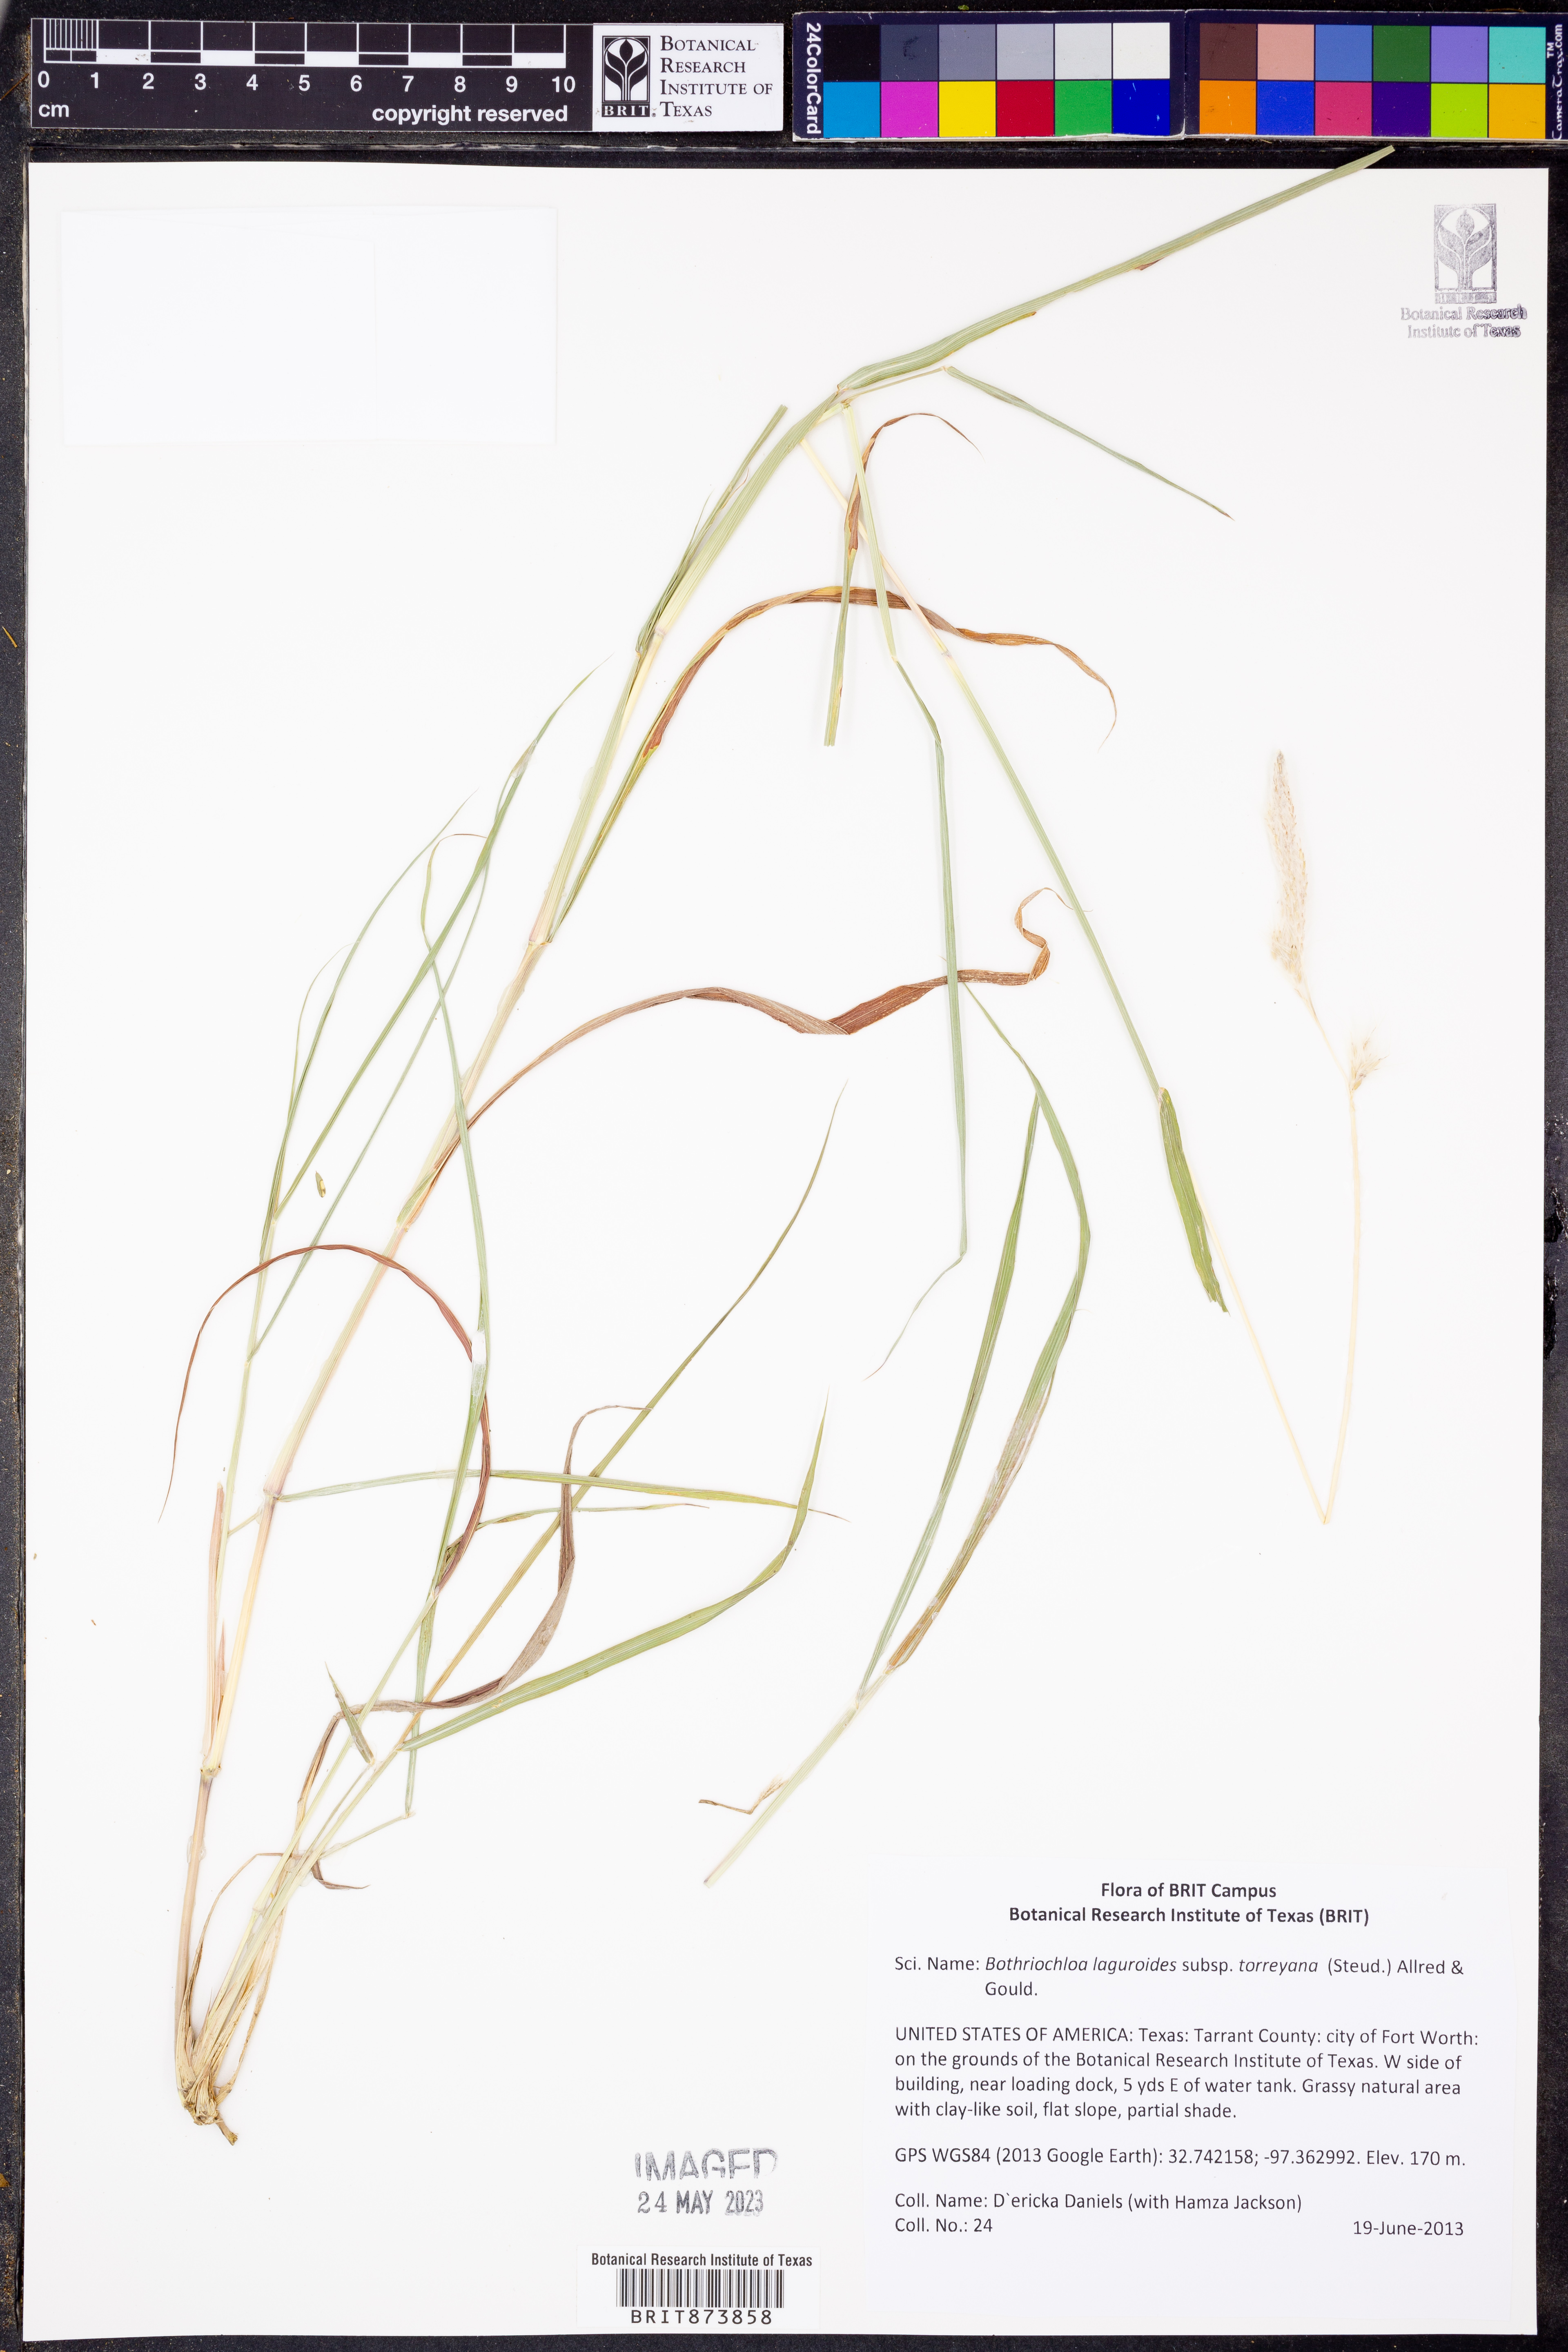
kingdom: Plantae
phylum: Tracheophyta
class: Liliopsida
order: Poales
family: Poaceae
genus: Bothriochloa
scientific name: Bothriochloa torreyana
